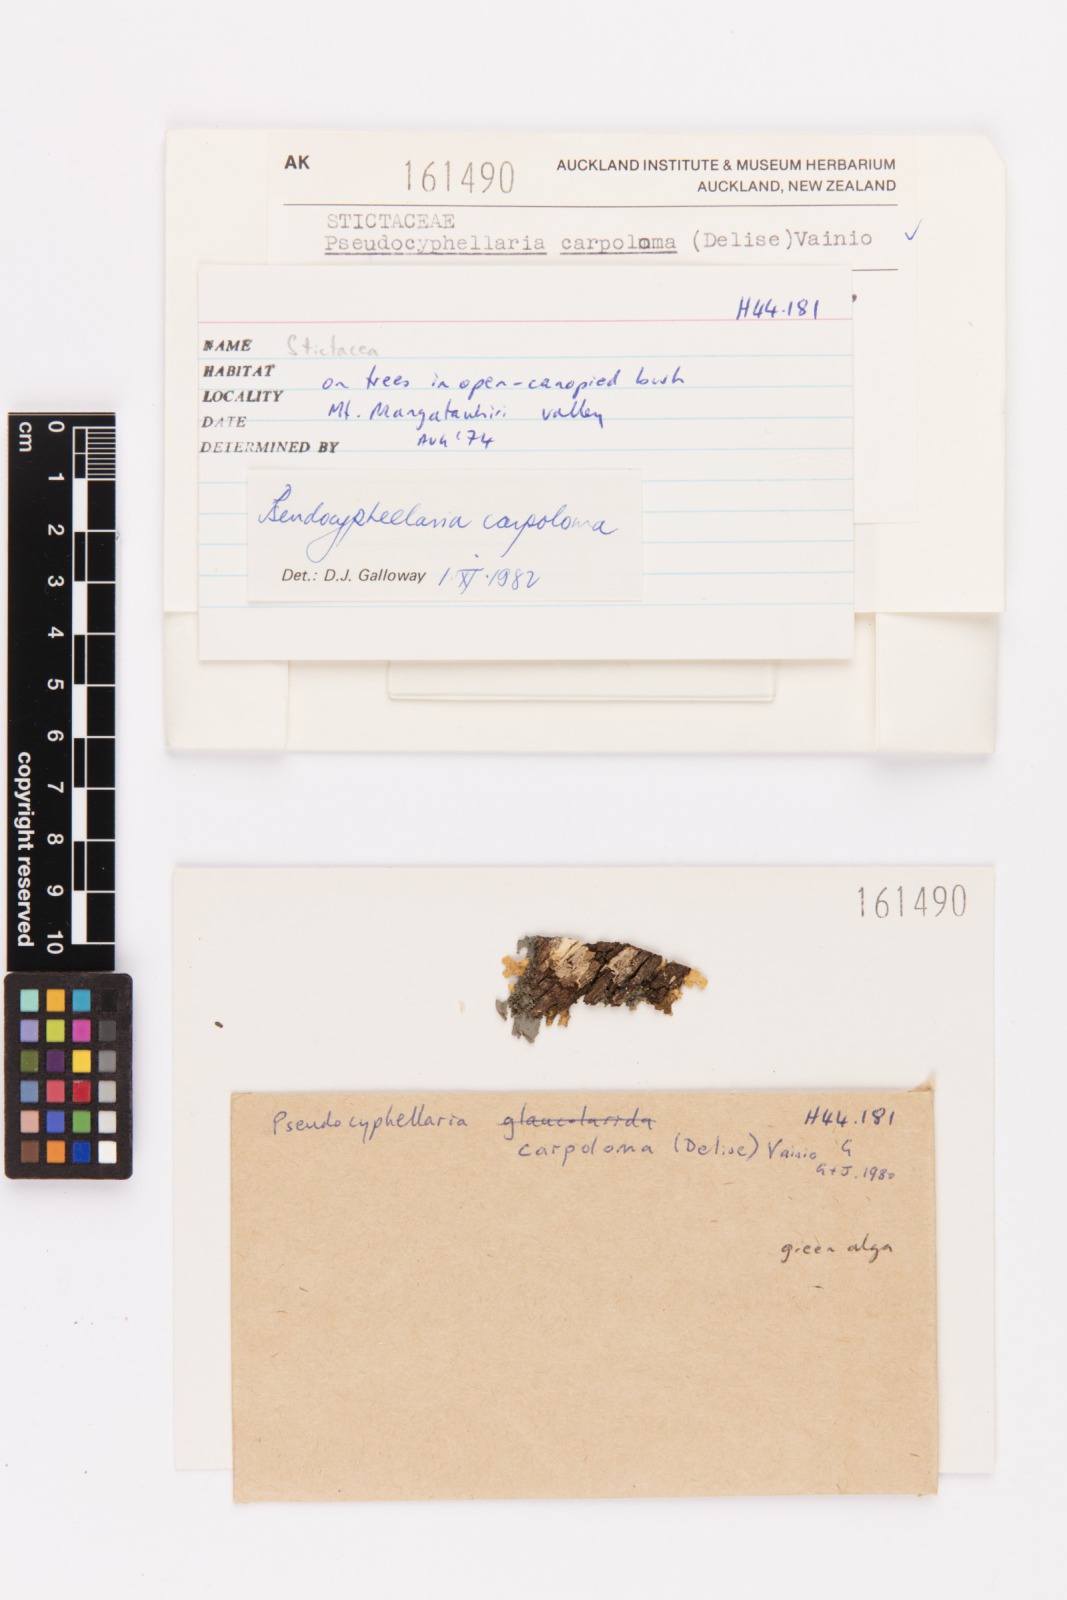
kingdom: Fungi
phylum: Ascomycota
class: Lecanoromycetes
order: Peltigerales
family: Lobariaceae
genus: Pseudocyphellaria
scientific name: Pseudocyphellaria carpoloma
